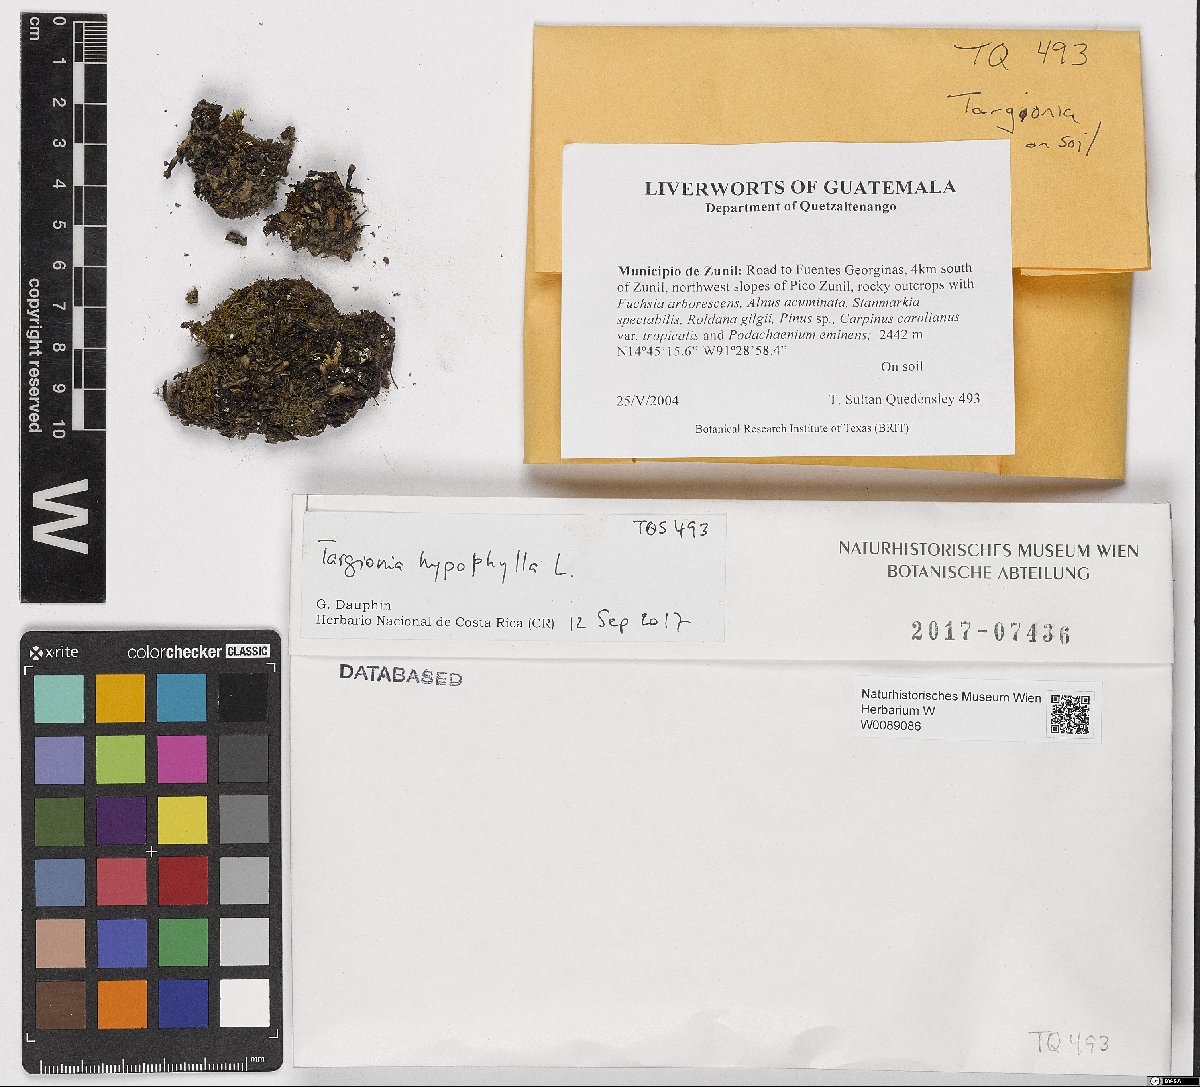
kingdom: Plantae
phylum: Marchantiophyta
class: Marchantiopsida
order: Marchantiales
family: Targioniaceae
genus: Targionia
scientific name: Targionia hypophylla
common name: Orobus-seed liverwort
